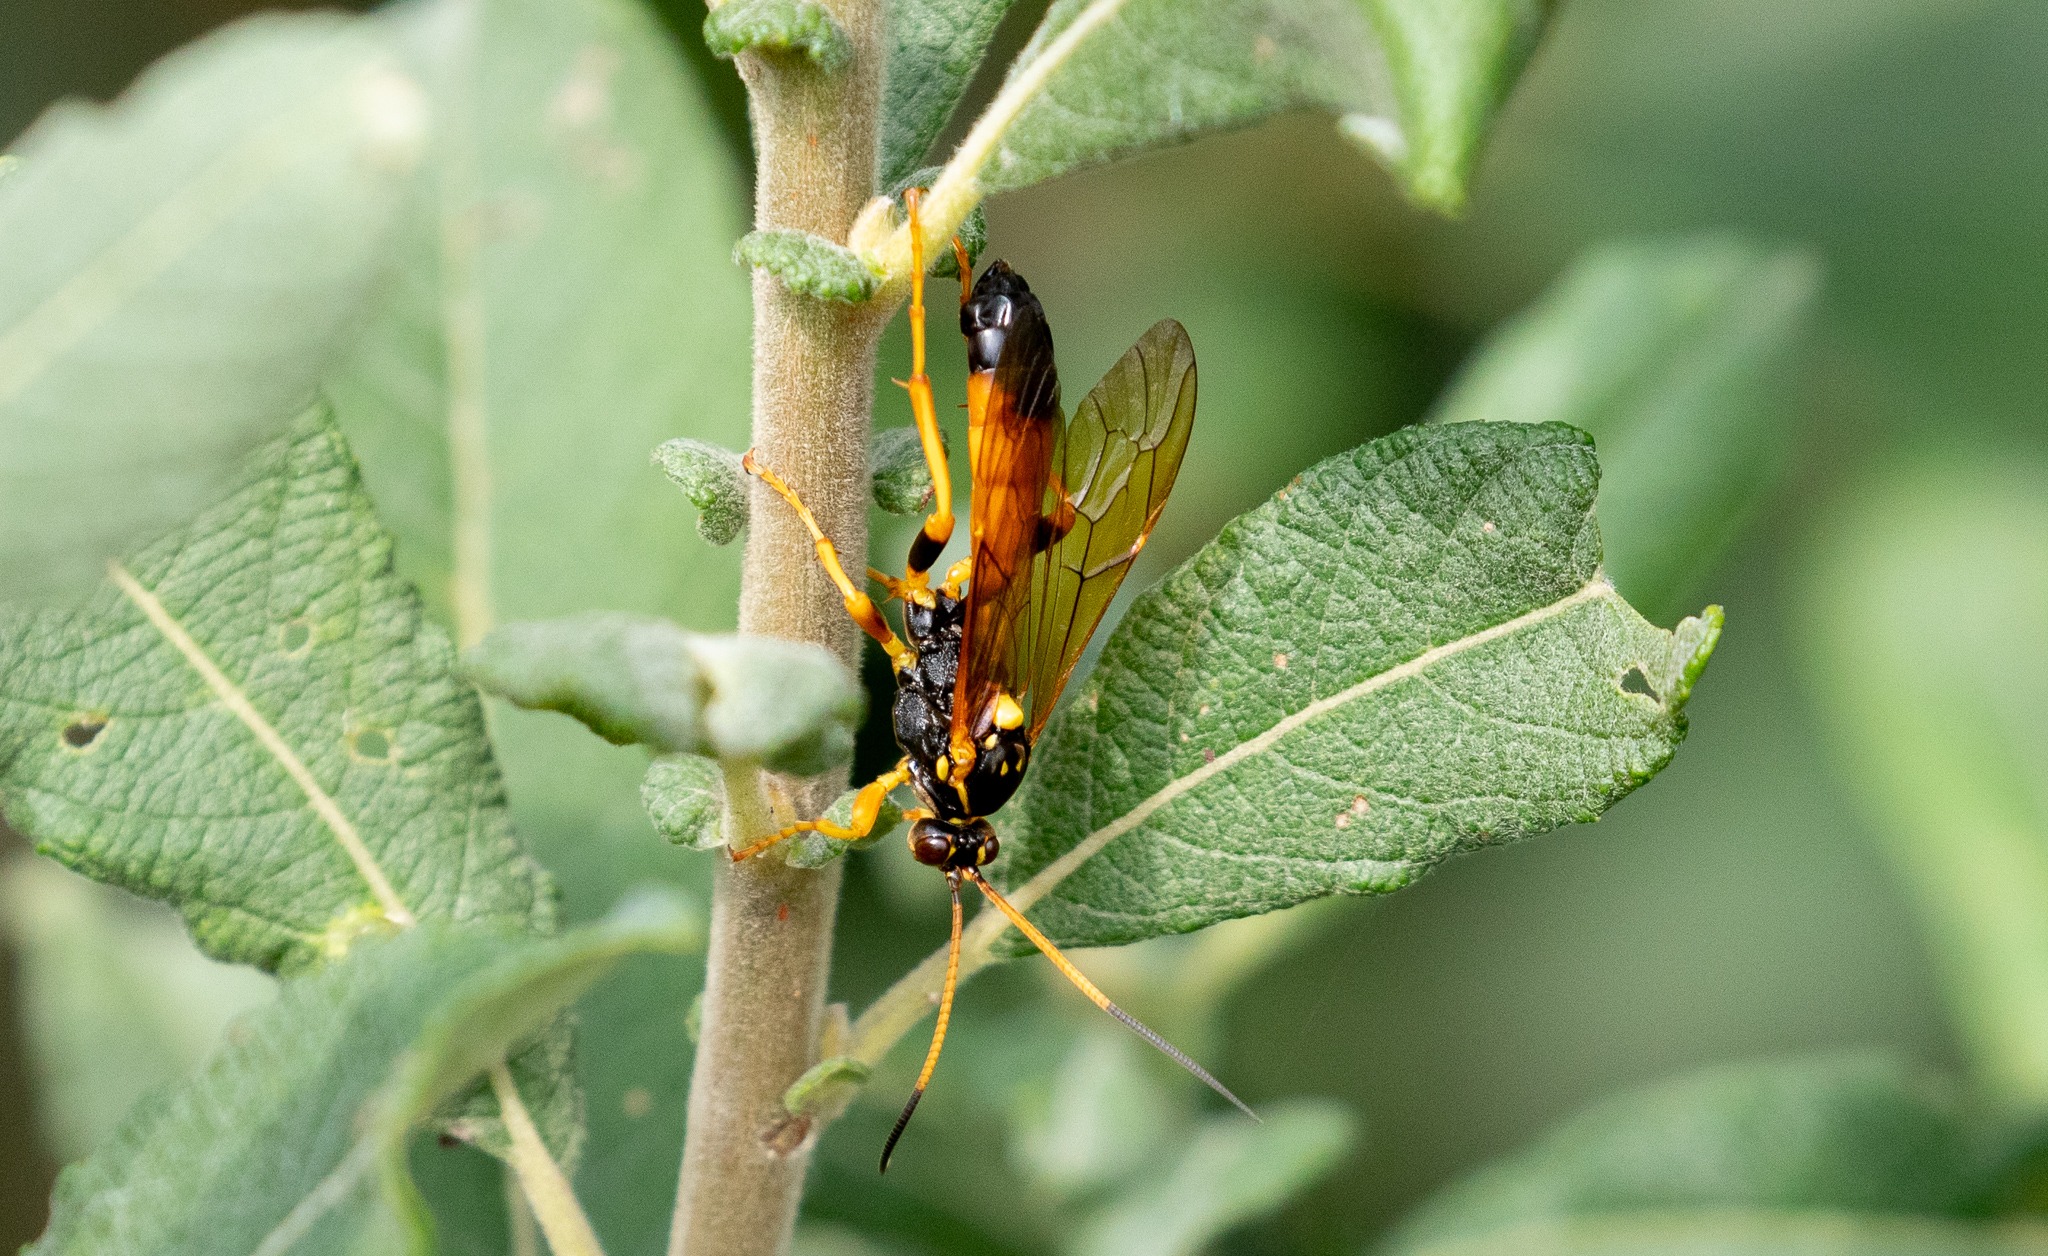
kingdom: Animalia
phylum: Arthropoda
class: Insecta
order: Hymenoptera
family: Ichneumonidae
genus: Callajoppa
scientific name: Callajoppa cirrogaster
